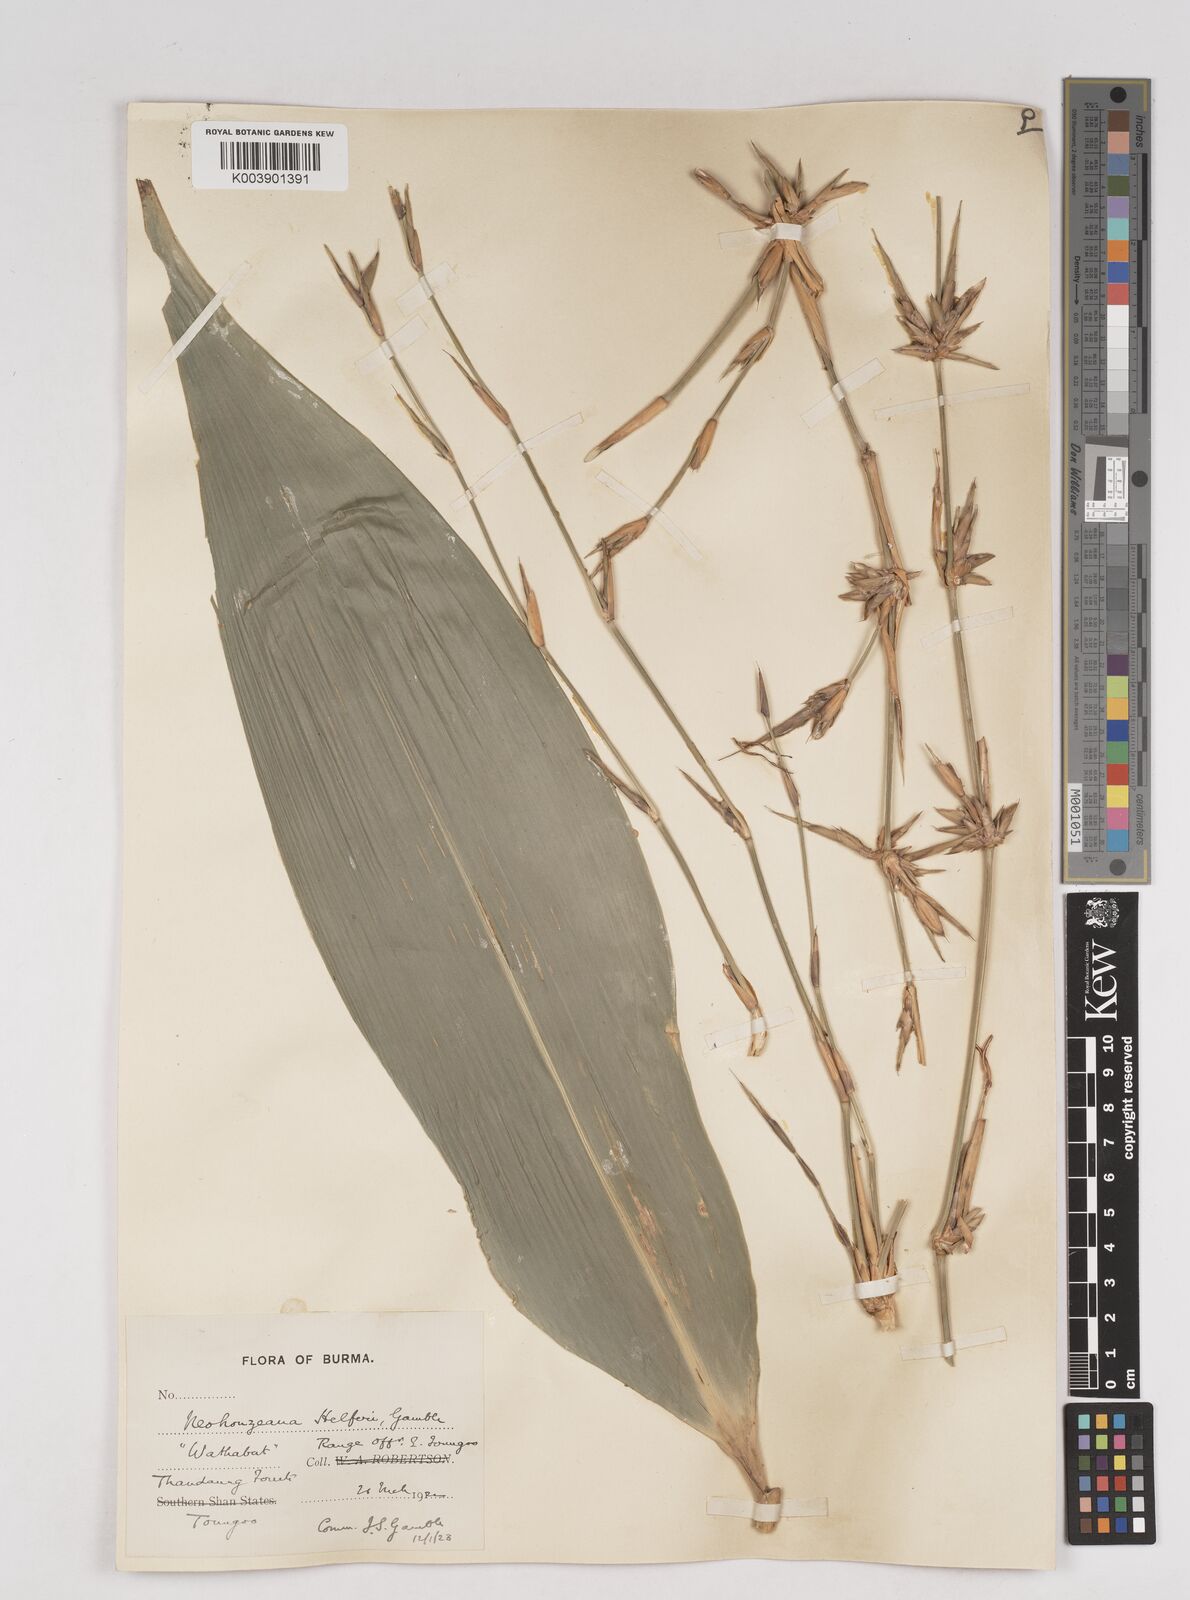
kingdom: Plantae
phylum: Tracheophyta
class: Liliopsida
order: Poales
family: Poaceae
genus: Schizostachyum
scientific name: Schizostachyum helferi
